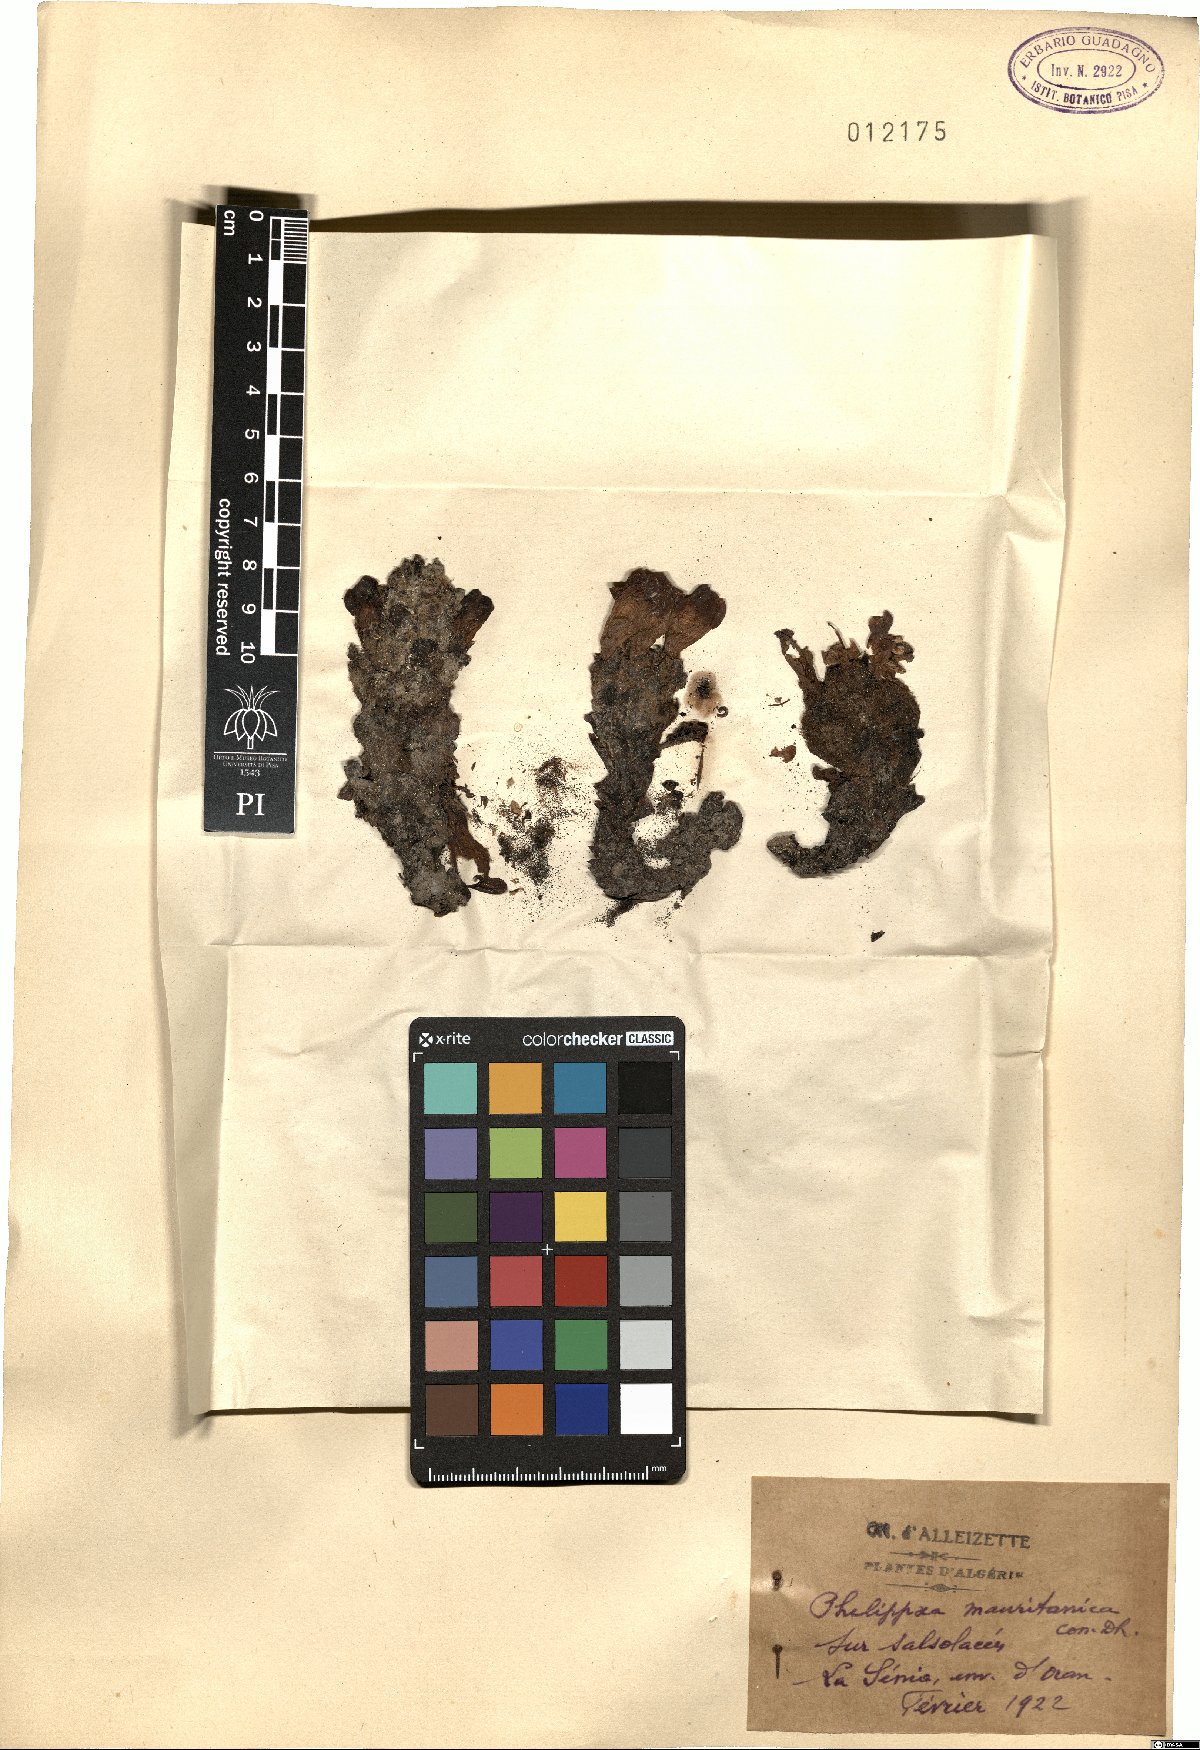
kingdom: Plantae
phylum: Tracheophyta
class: Magnoliopsida
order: Lamiales
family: Orobanchaceae
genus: Cistanche
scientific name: Cistanche mauritanica
